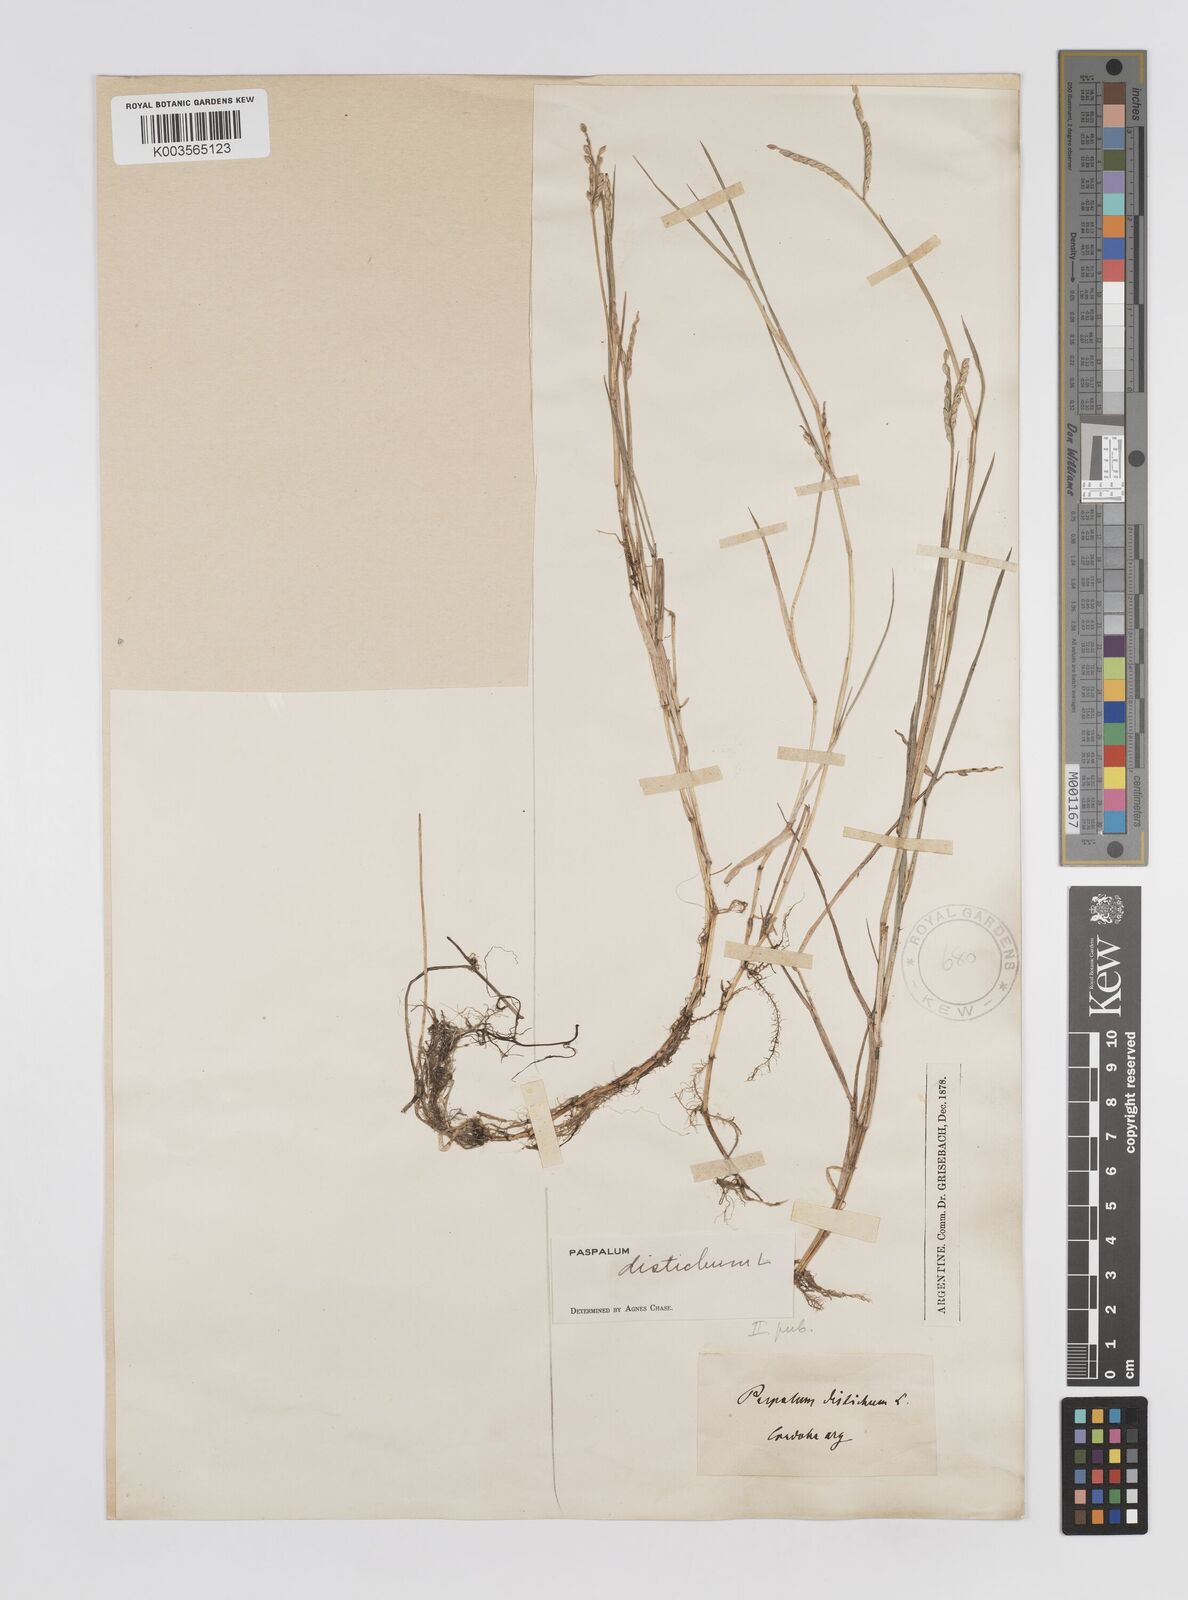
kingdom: Plantae
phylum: Tracheophyta
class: Liliopsida
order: Poales
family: Poaceae
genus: Paspalum
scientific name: Paspalum distichum
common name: Knotgrass
